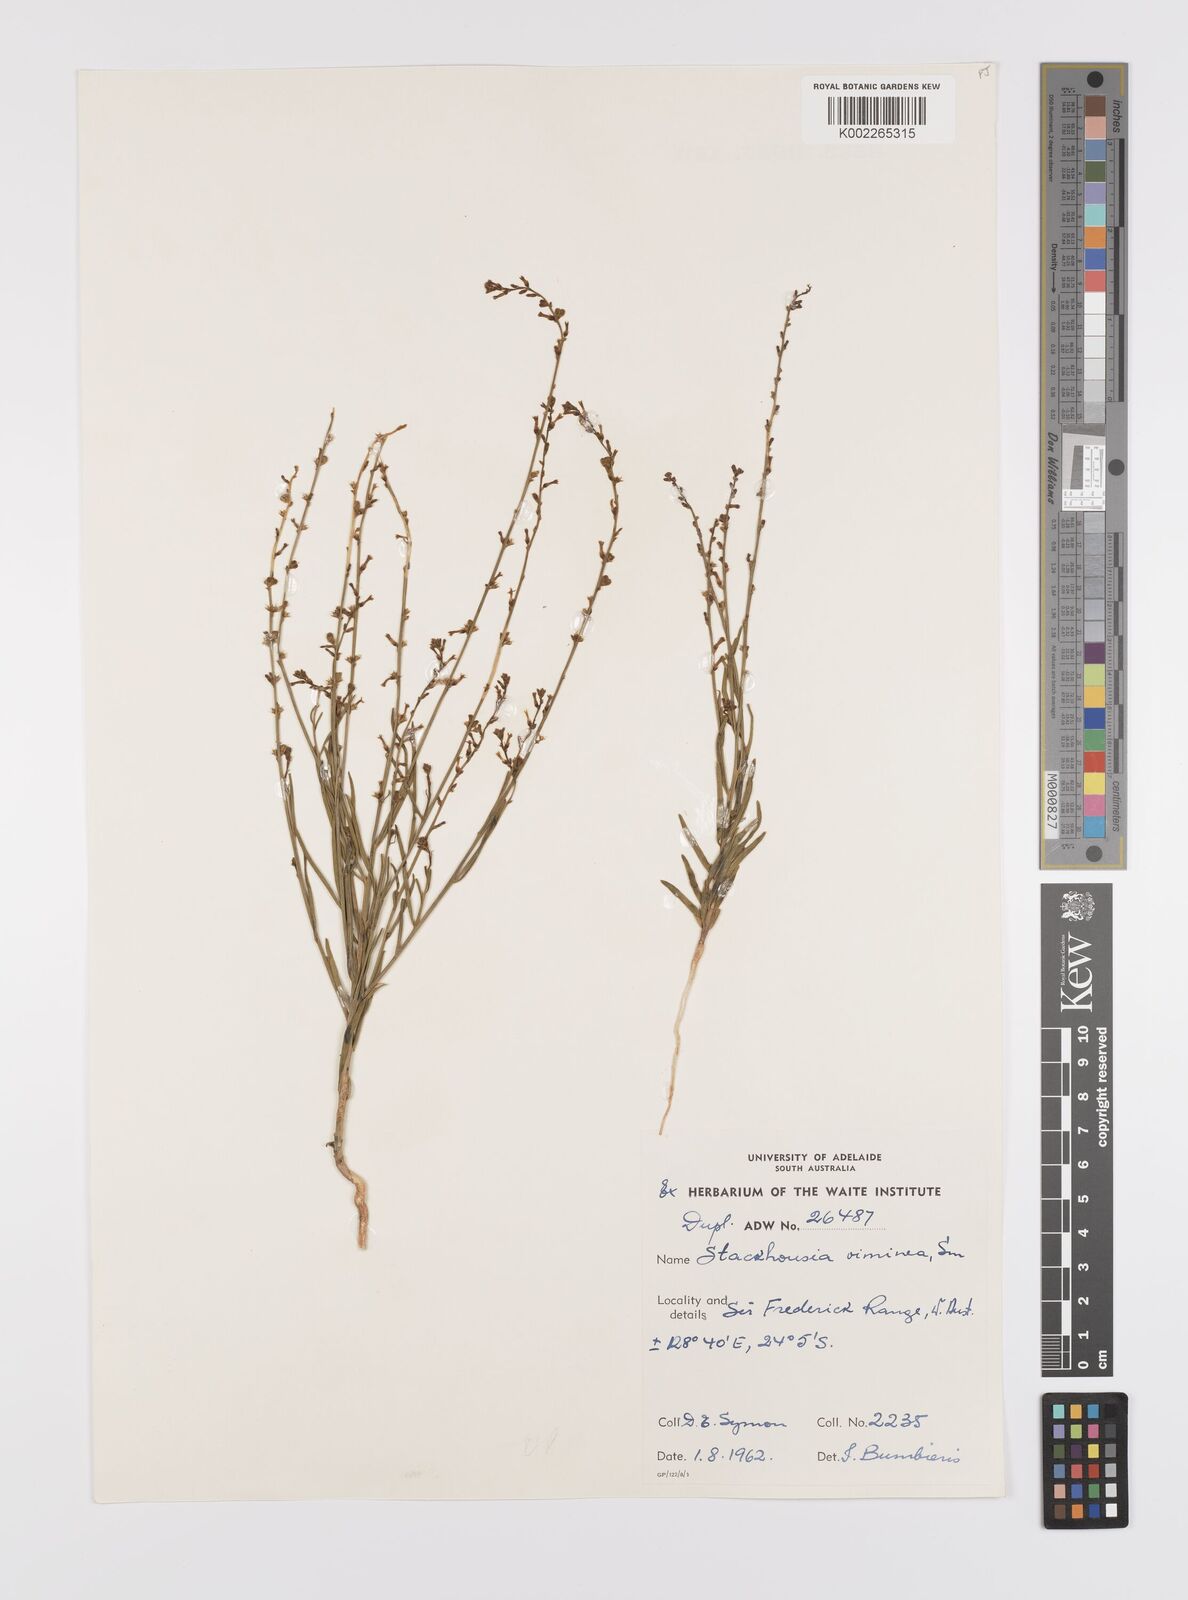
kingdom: Plantae
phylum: Tracheophyta
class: Magnoliopsida
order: Celastrales
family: Celastraceae
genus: Stackhousia
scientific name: Stackhousia viminea
